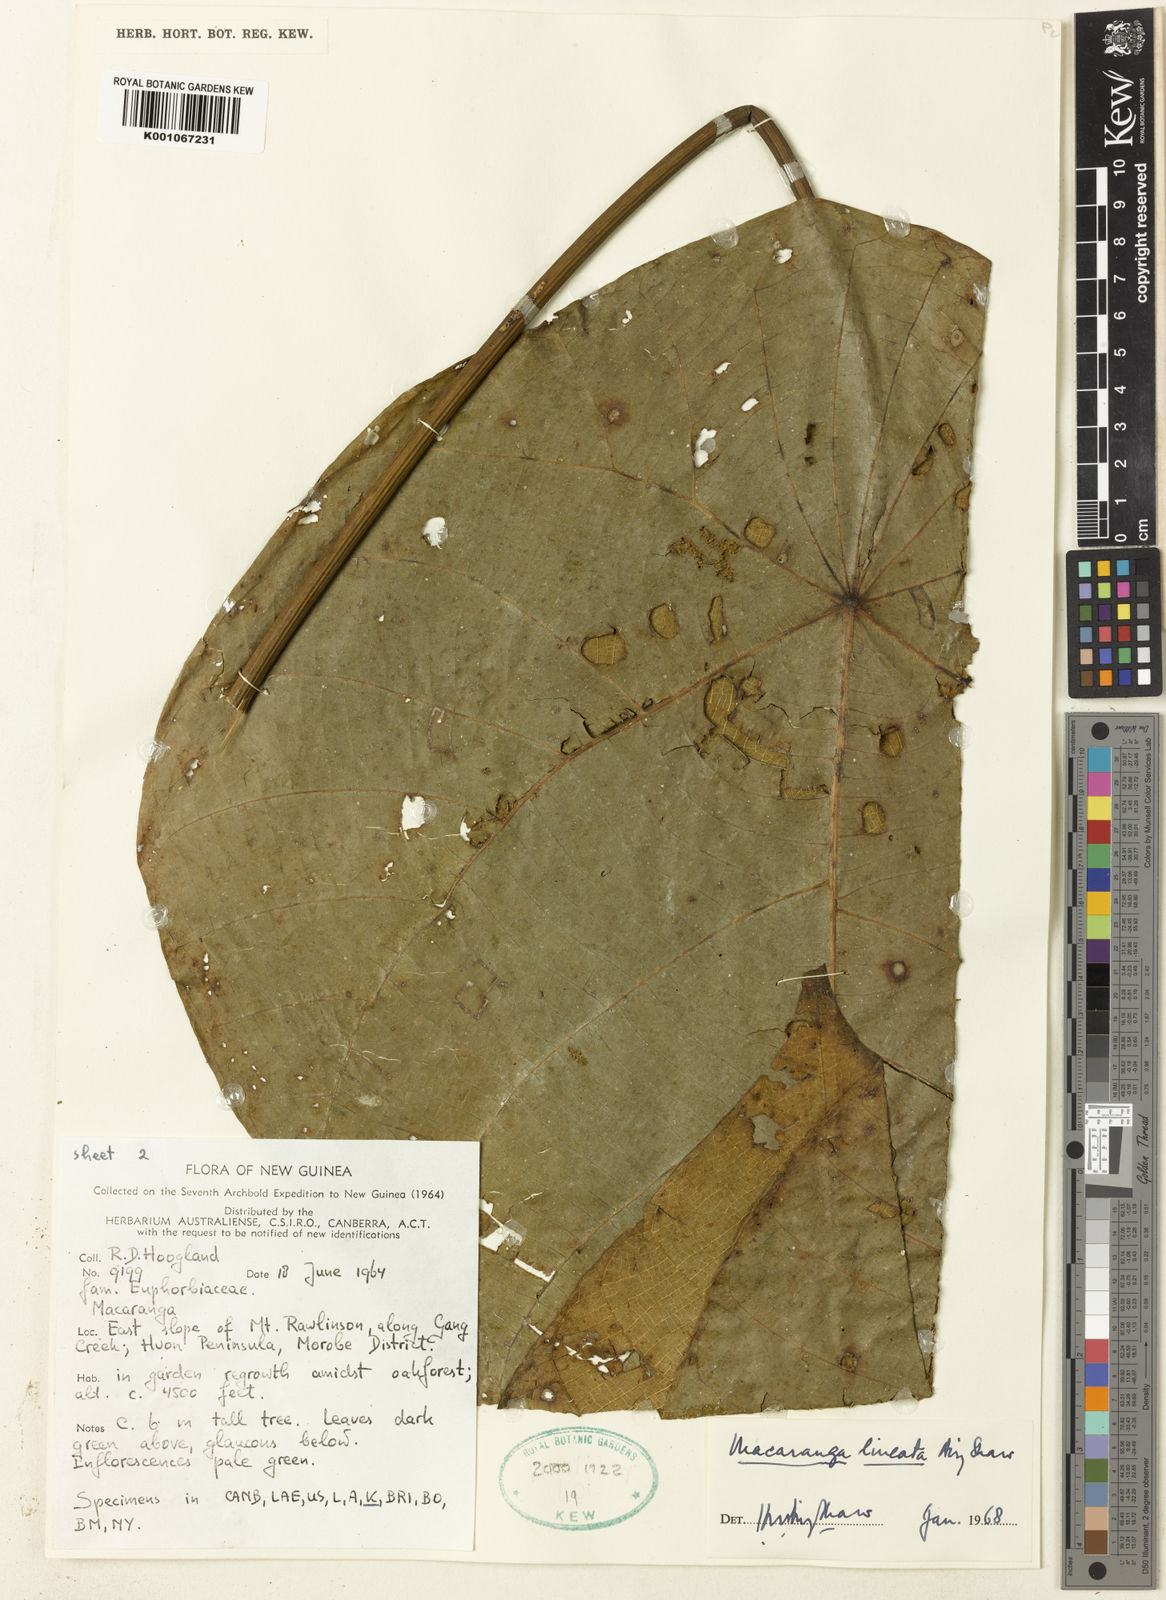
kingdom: Plantae
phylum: Tracheophyta
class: Magnoliopsida
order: Malpighiales
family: Euphorbiaceae
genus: Macaranga
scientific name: Macaranga lineata
